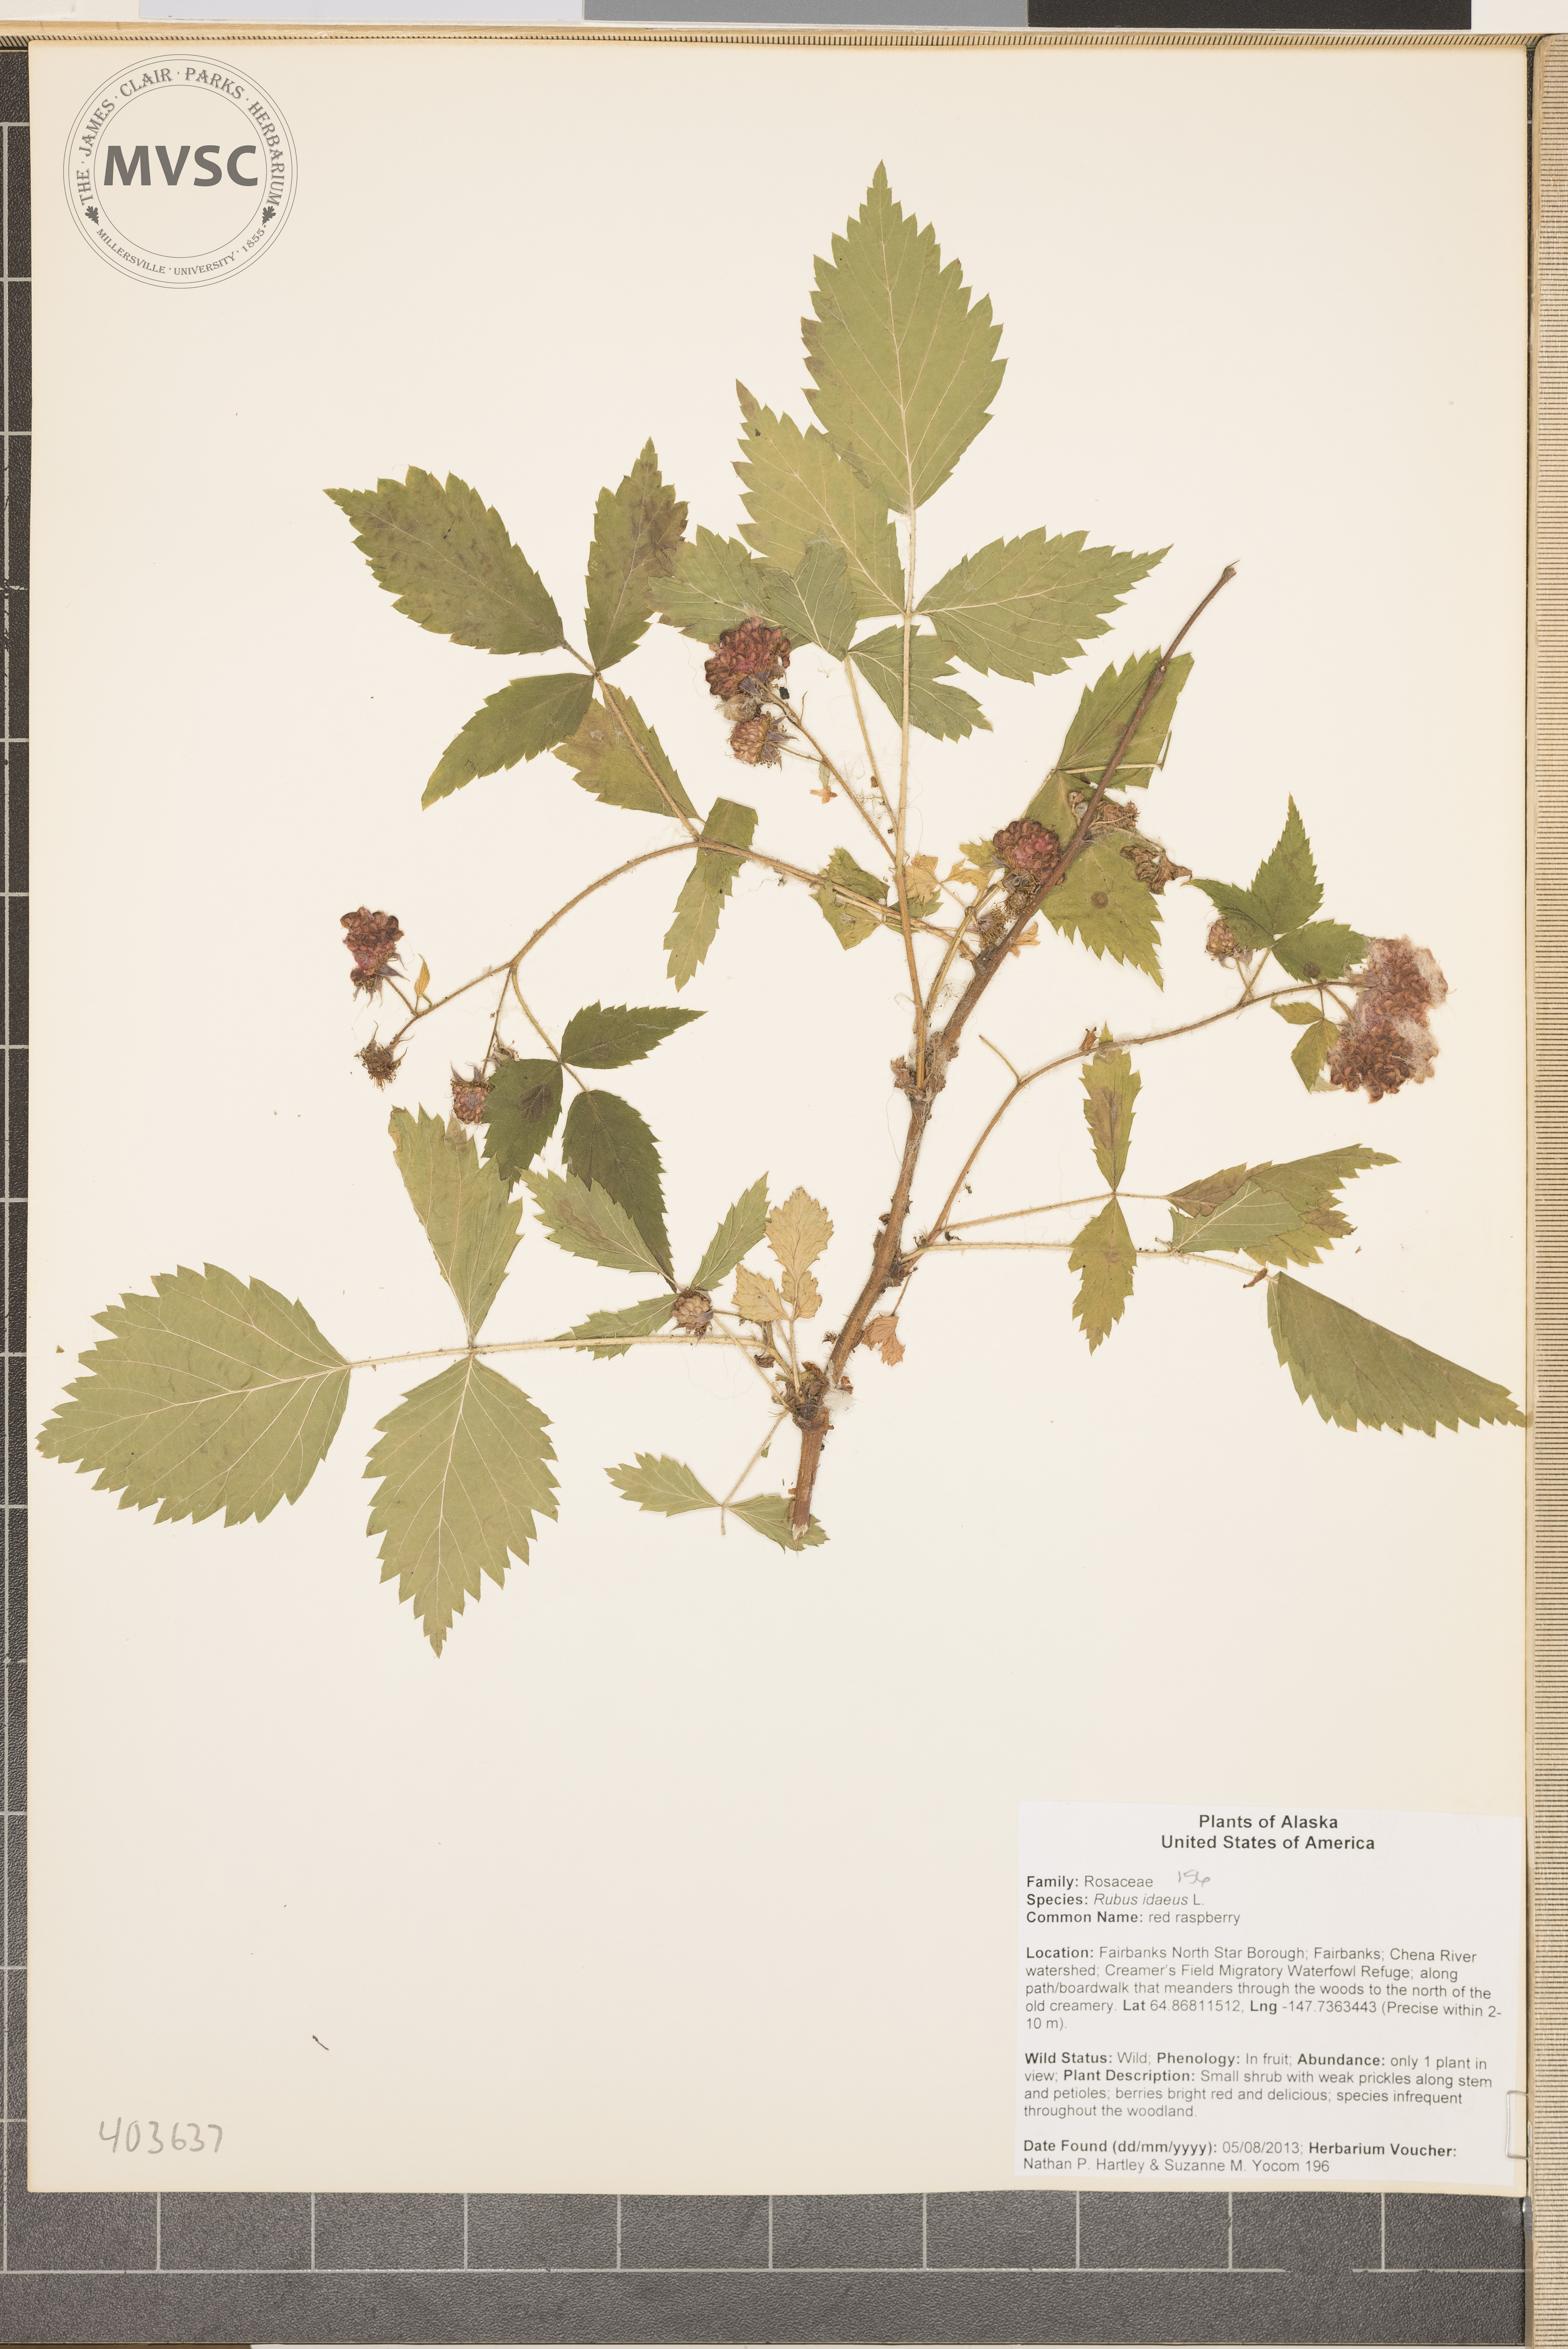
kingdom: Plantae
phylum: Tracheophyta
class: Magnoliopsida
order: Rosales
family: Rosaceae
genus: Rubus
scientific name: Rubus idaeus
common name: raspberry
